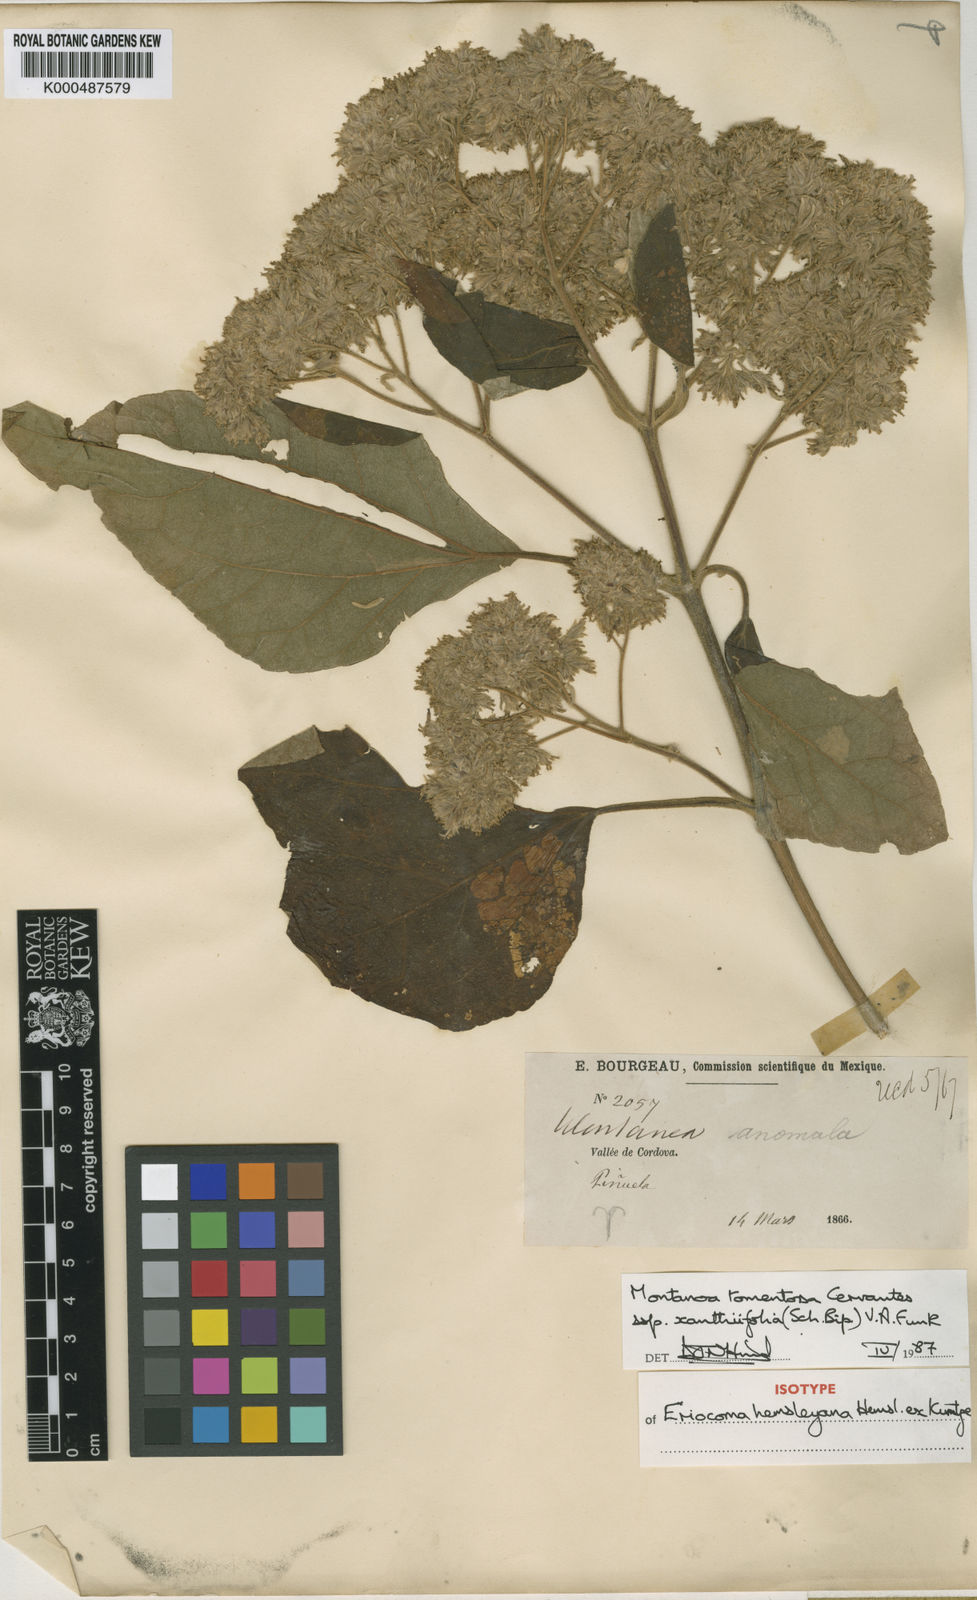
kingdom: Plantae
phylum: Tracheophyta
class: Magnoliopsida
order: Asterales
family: Asteraceae
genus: Montanoa
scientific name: Montanoa tomentosa
